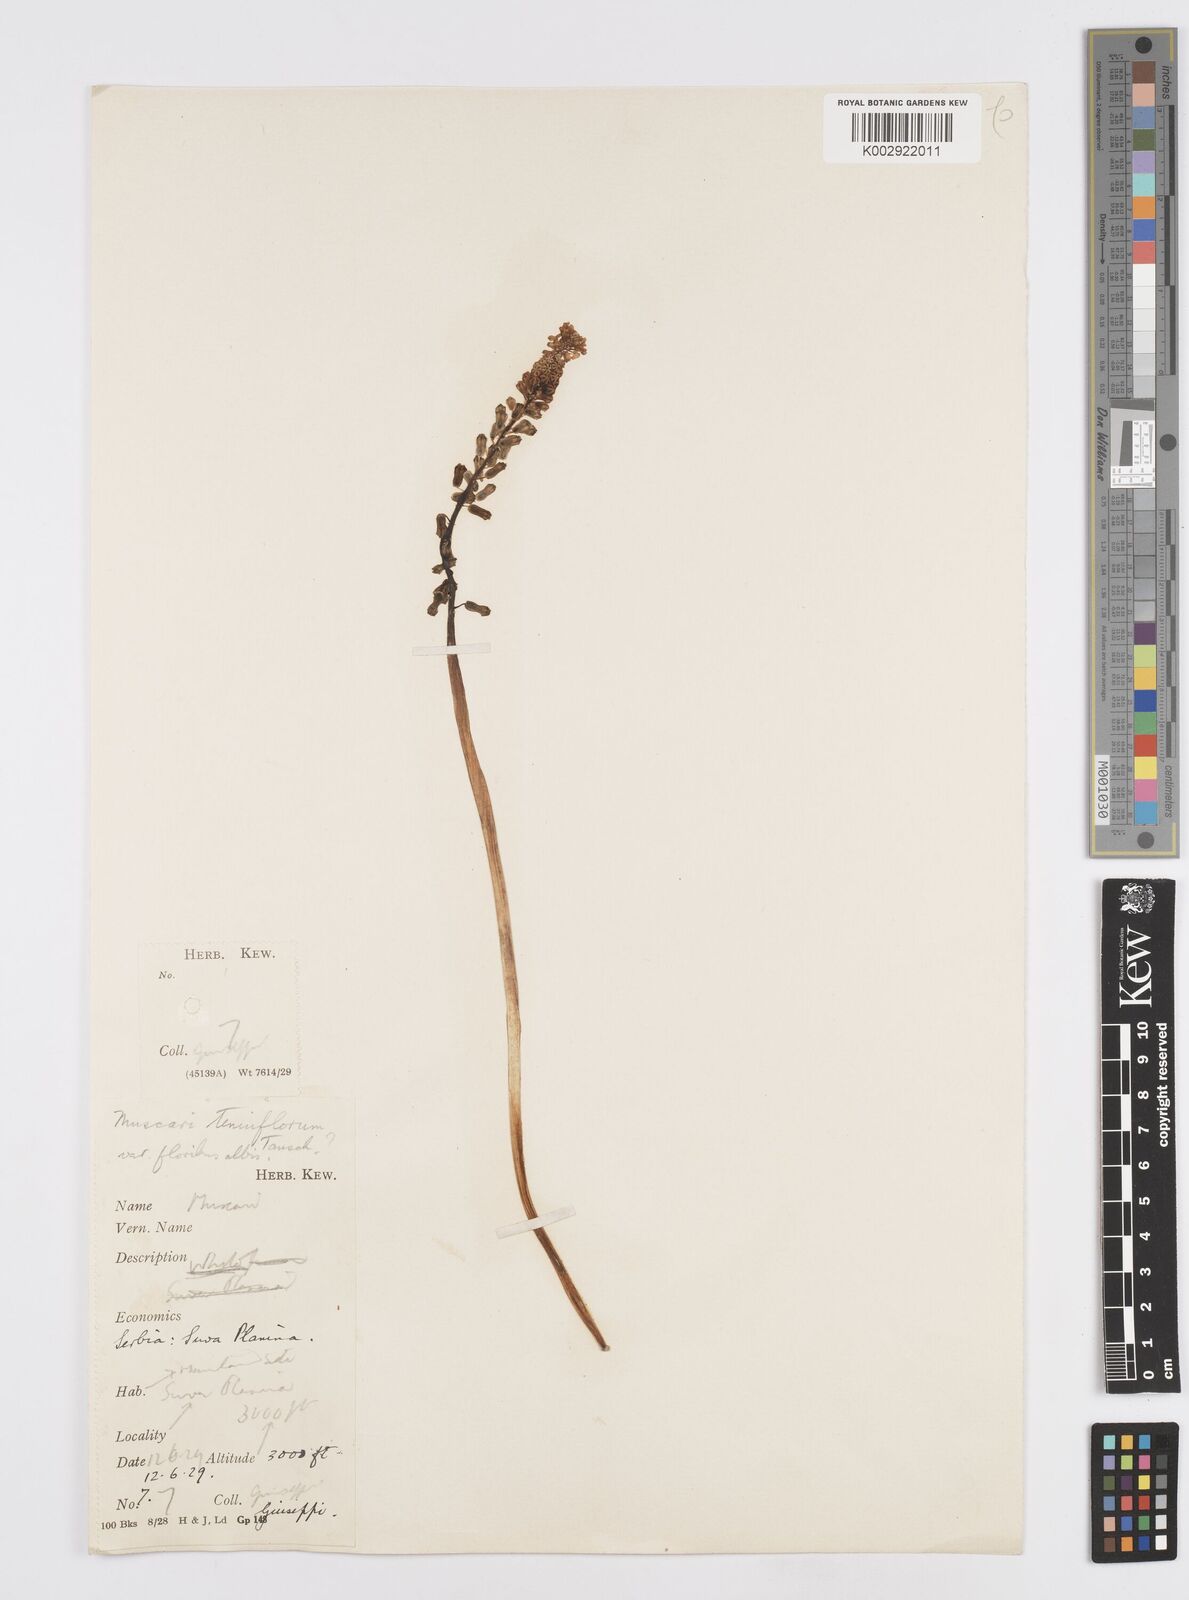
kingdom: Plantae
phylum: Tracheophyta
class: Liliopsida
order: Asparagales
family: Asparagaceae
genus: Muscari
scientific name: Muscari tenuiflorum
